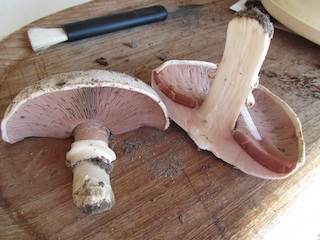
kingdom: Fungi
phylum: Basidiomycota
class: Agaricomycetes
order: Agaricales
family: Agaricaceae
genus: Agaricus
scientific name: Agaricus bitorquis
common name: vej-champignon
